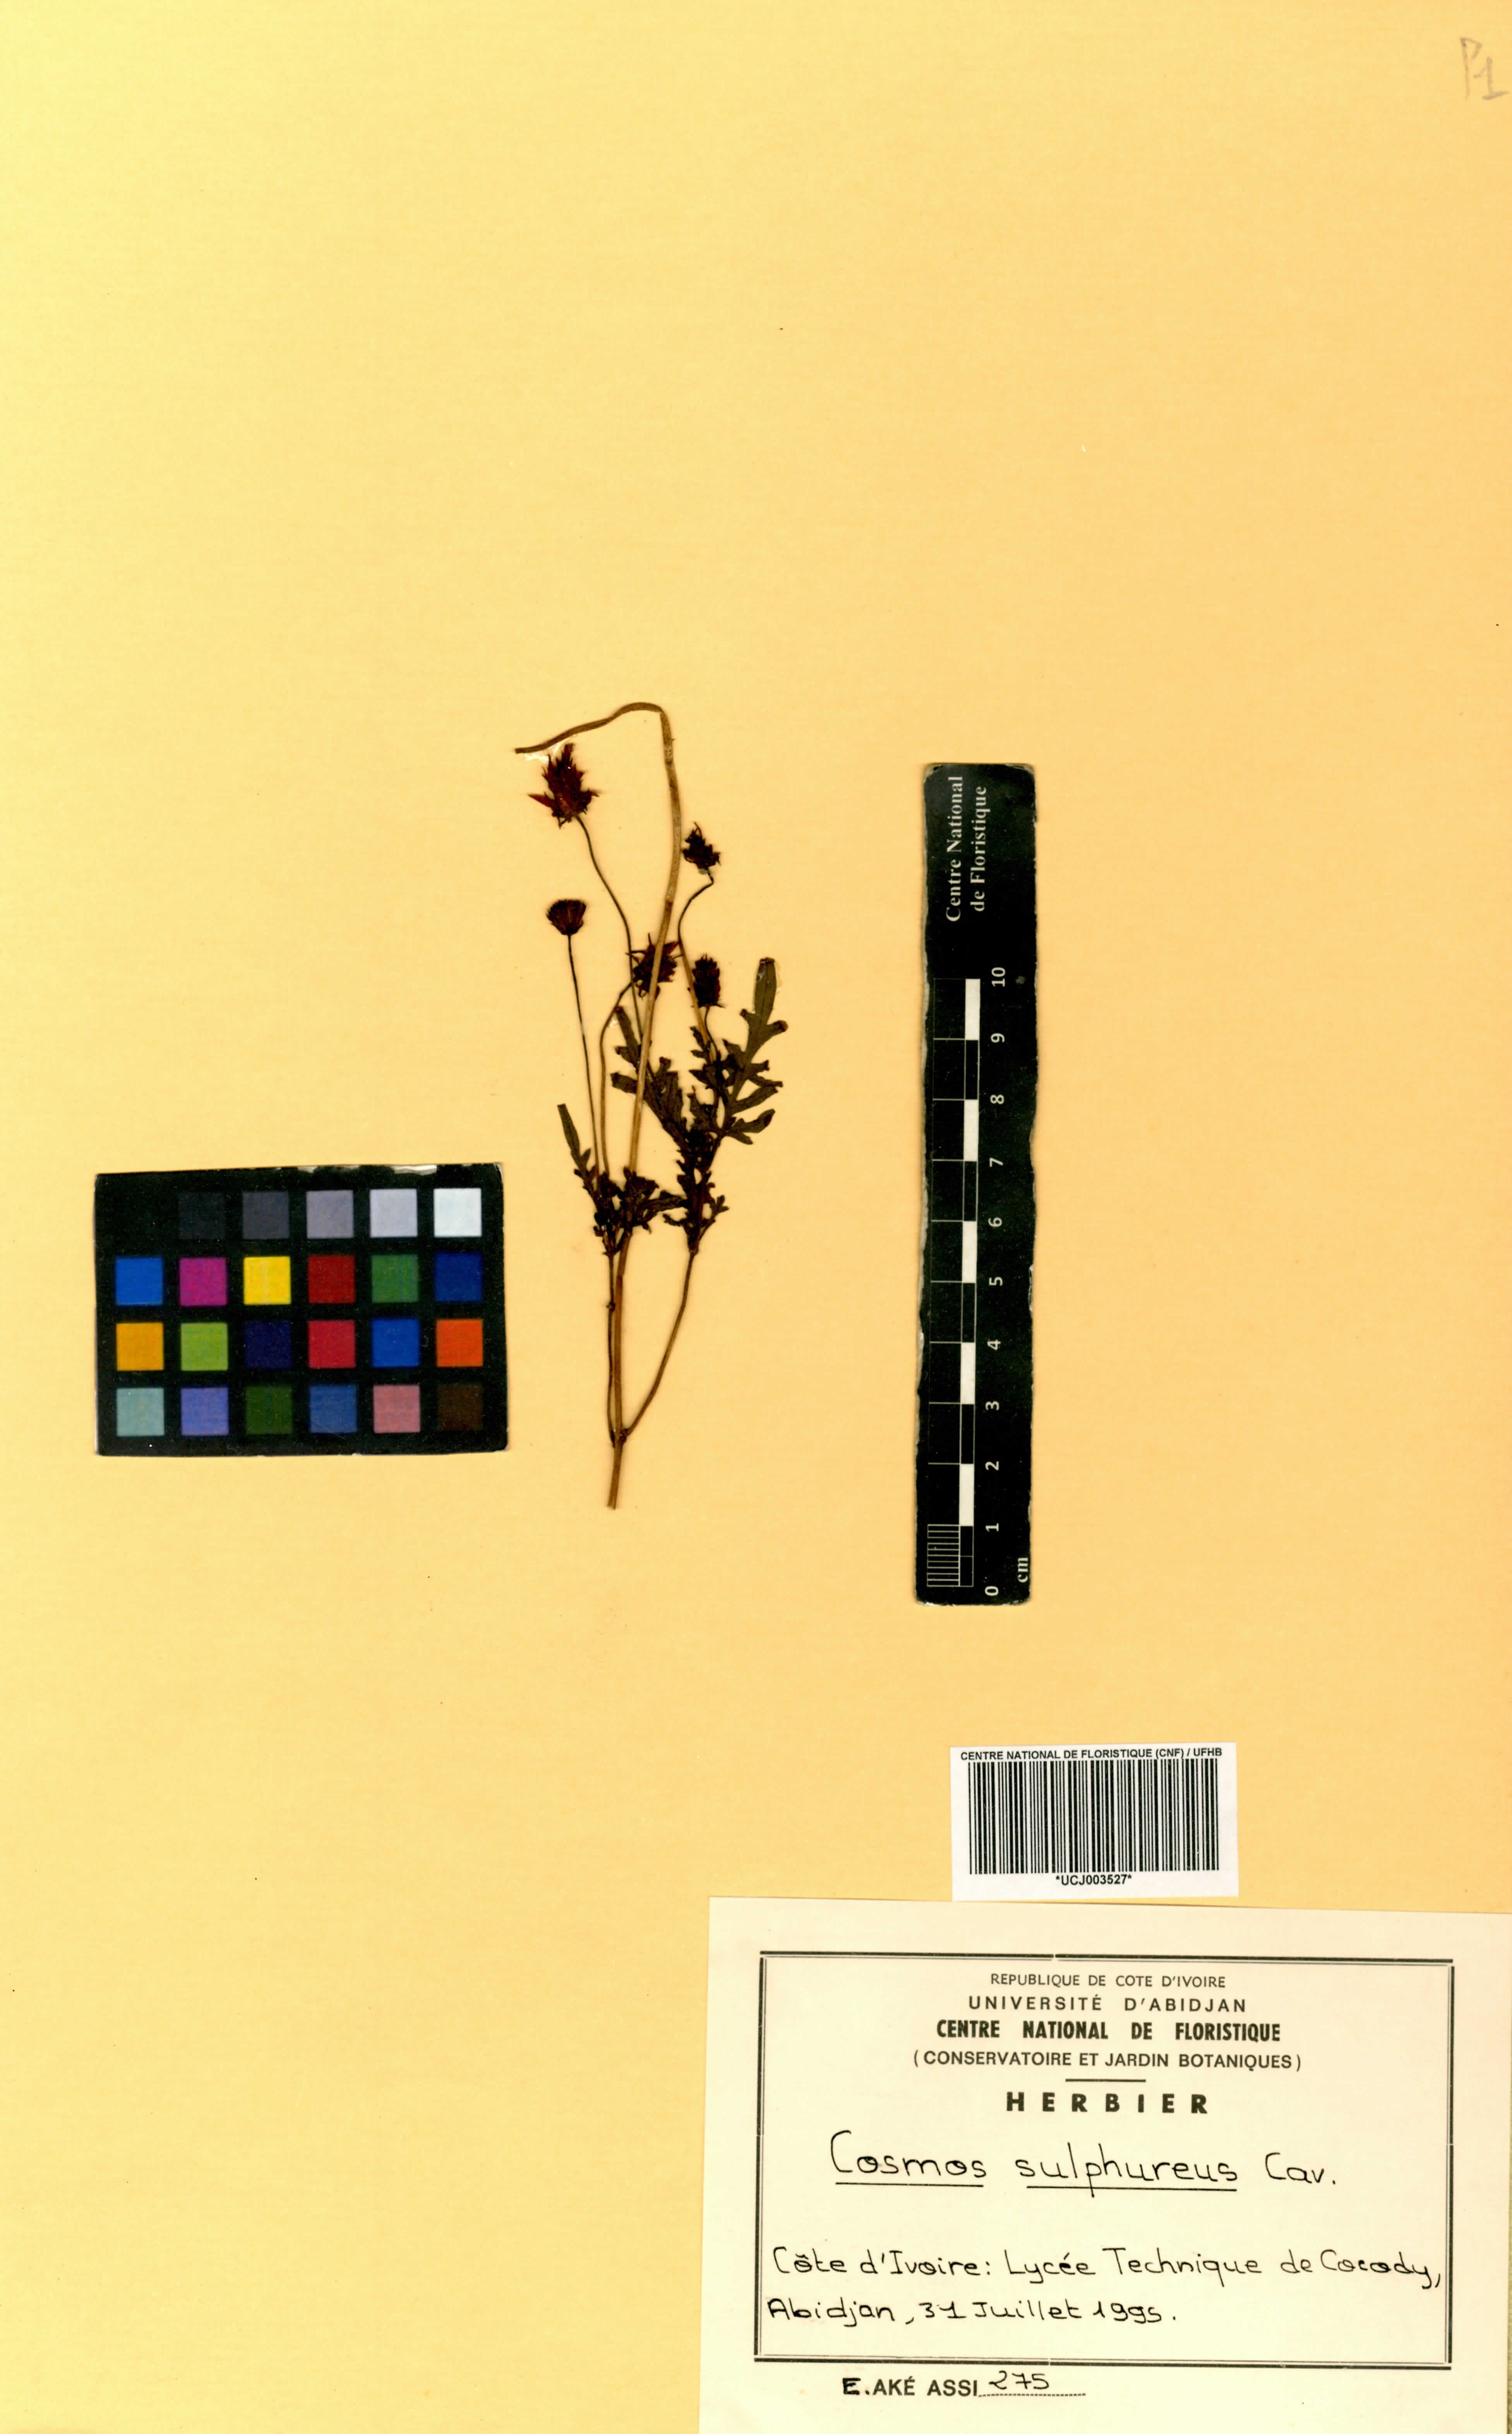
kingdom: Plantae
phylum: Tracheophyta
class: Magnoliopsida
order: Asterales
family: Asteraceae
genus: Cosmos
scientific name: Cosmos sulphureus
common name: Sulphur cosmos
